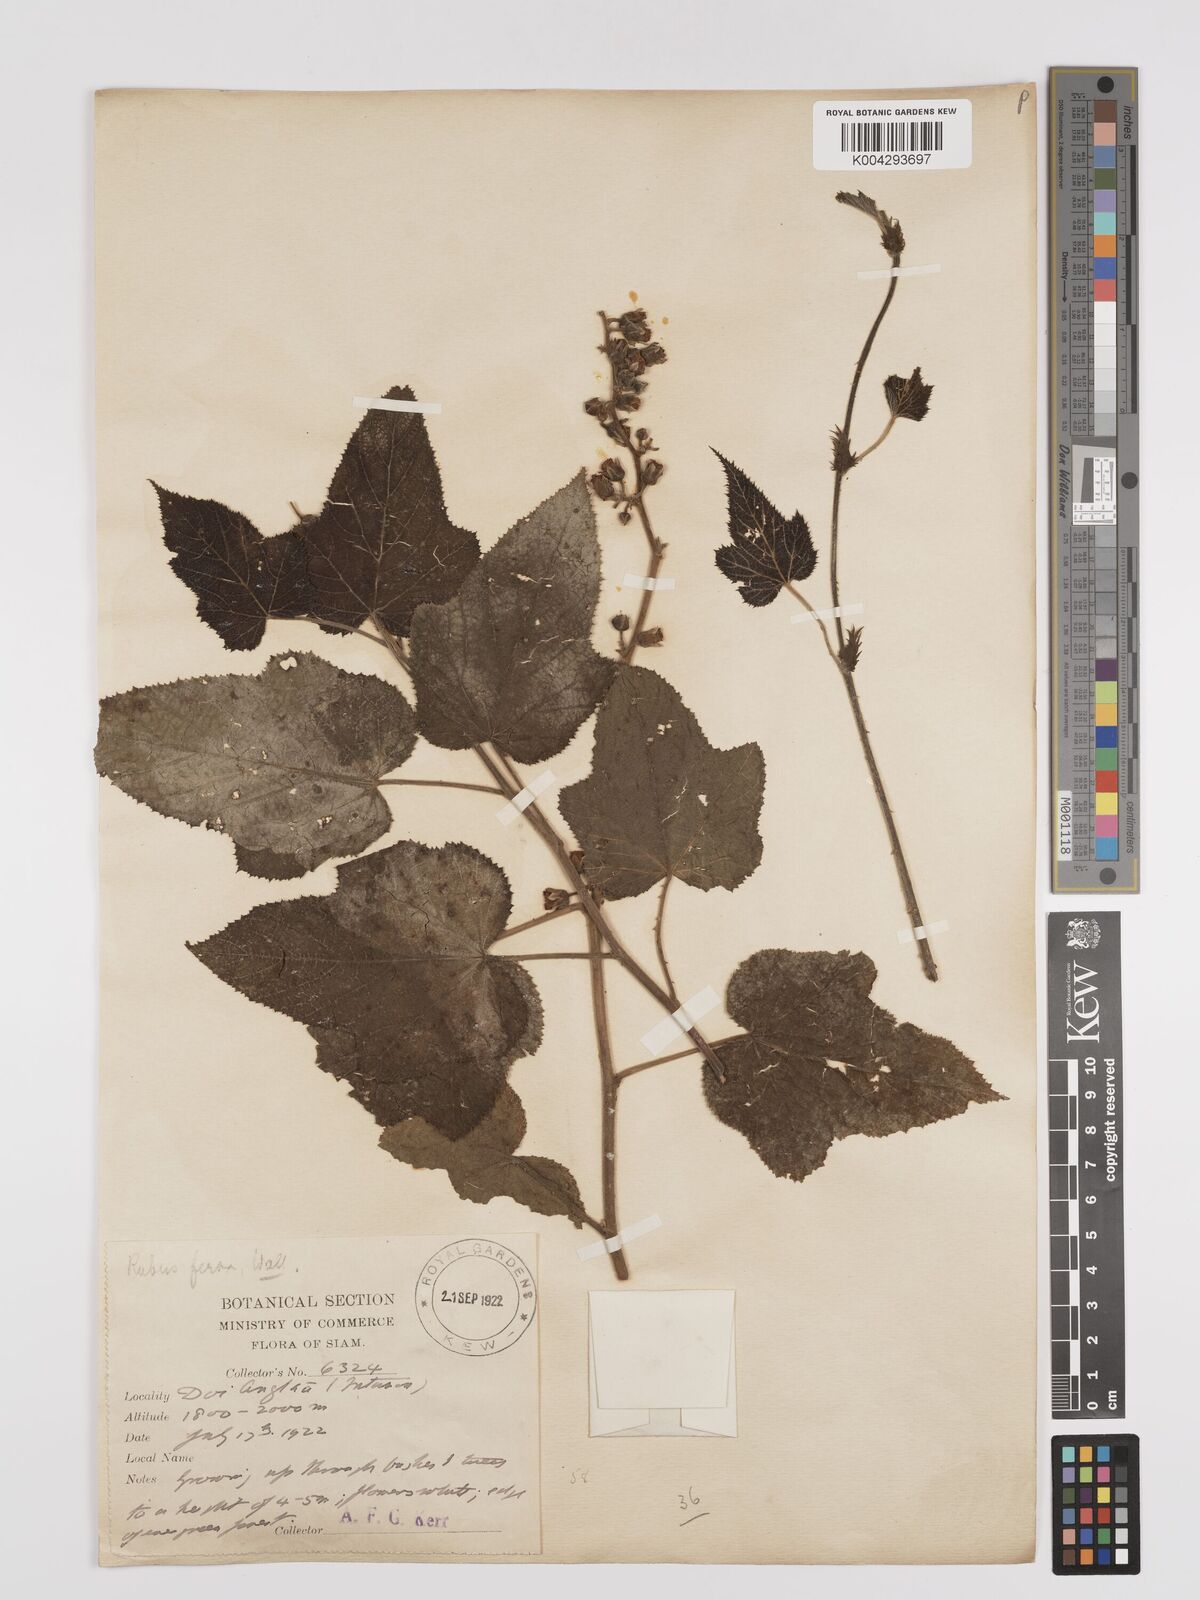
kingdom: Plantae
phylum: Tracheophyta
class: Magnoliopsida
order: Rosales
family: Rosaceae
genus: Rubus
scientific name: Rubus
